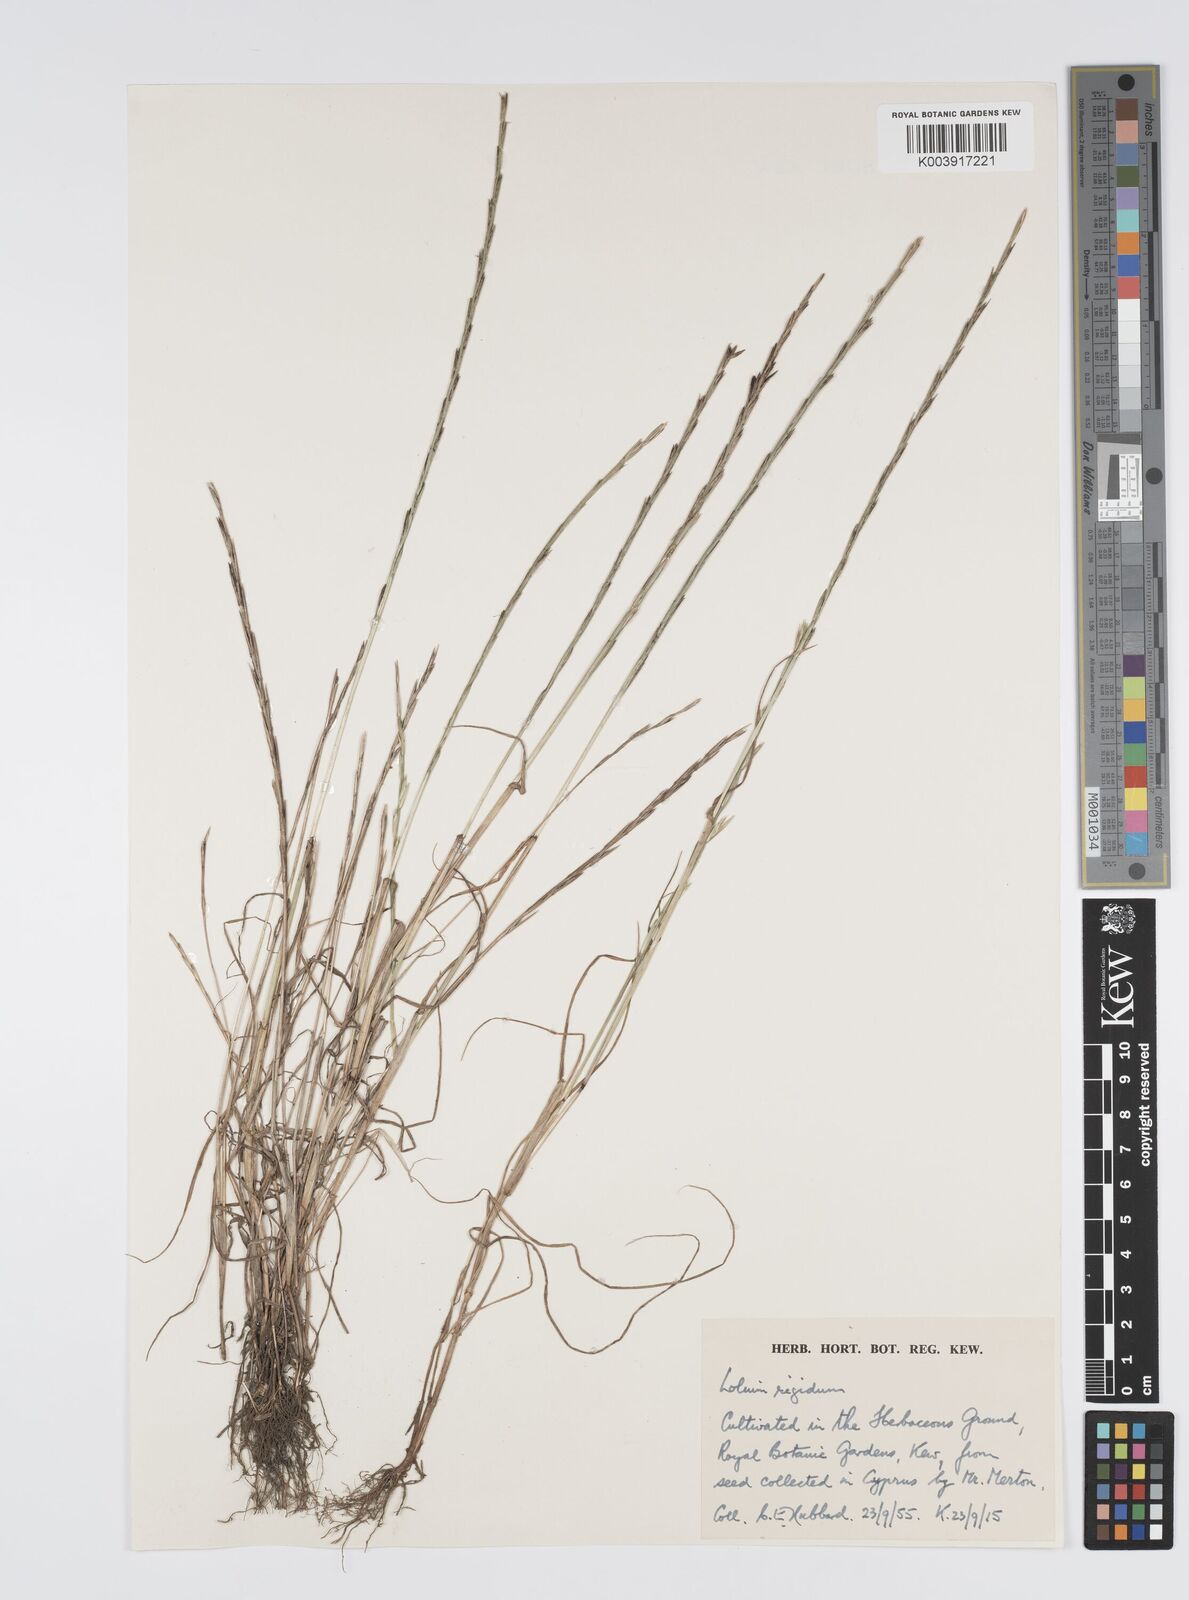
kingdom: Plantae
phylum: Tracheophyta
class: Liliopsida
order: Poales
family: Poaceae
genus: Lolium
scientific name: Lolium rigidum
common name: Wimmera ryegrass
